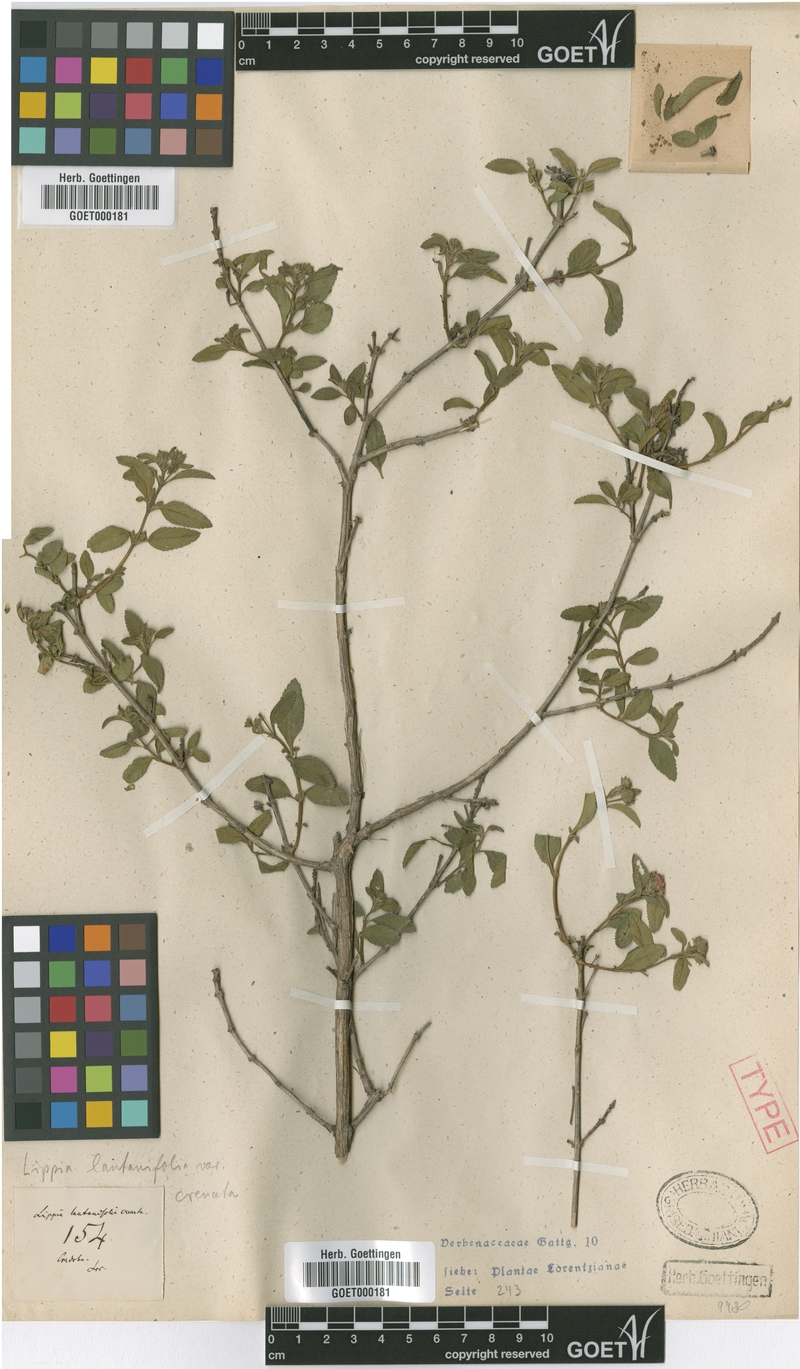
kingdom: Plantae
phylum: Tracheophyta
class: Magnoliopsida
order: Lamiales
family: Verbenaceae
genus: Lippia
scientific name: Lippia junelliana
